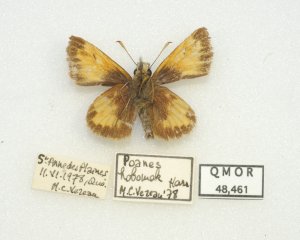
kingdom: Animalia
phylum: Arthropoda
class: Insecta
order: Lepidoptera
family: Hesperiidae
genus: Lon
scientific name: Lon hobomok
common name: Hobomok Skipper
